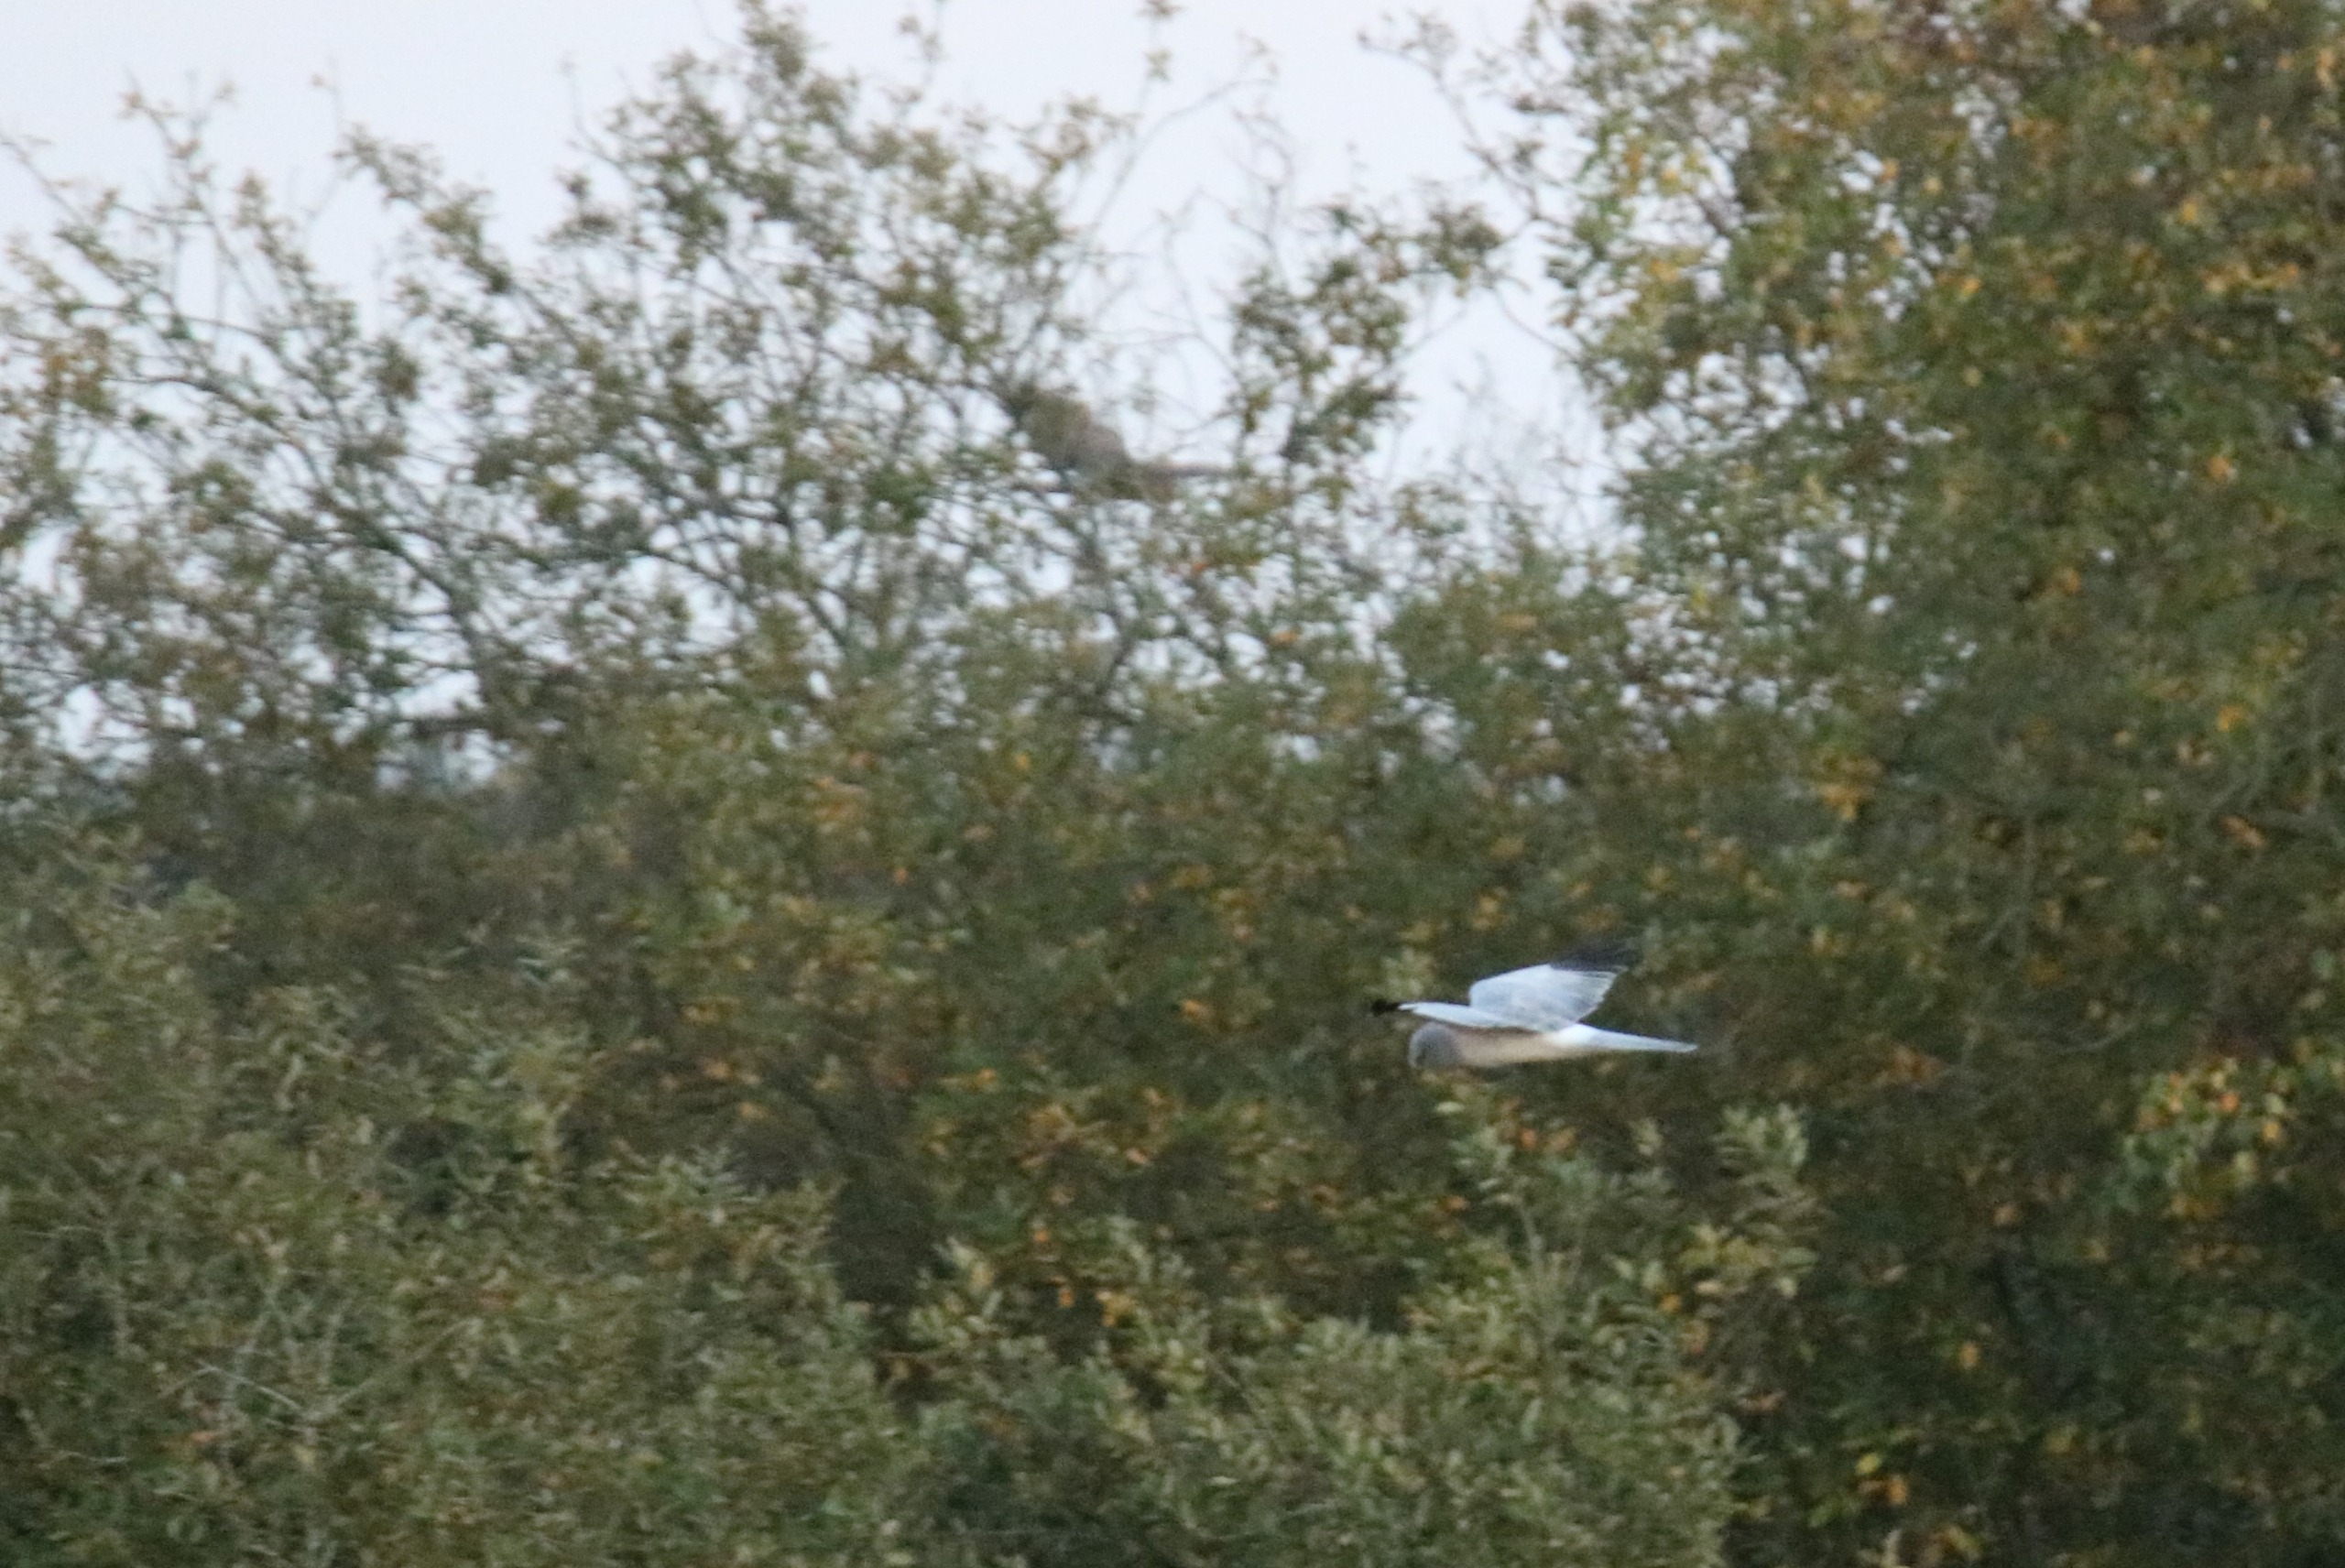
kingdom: Animalia
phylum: Chordata
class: Aves
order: Accipitriformes
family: Accipitridae
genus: Circus
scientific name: Circus cyaneus
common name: Blå kærhøg
